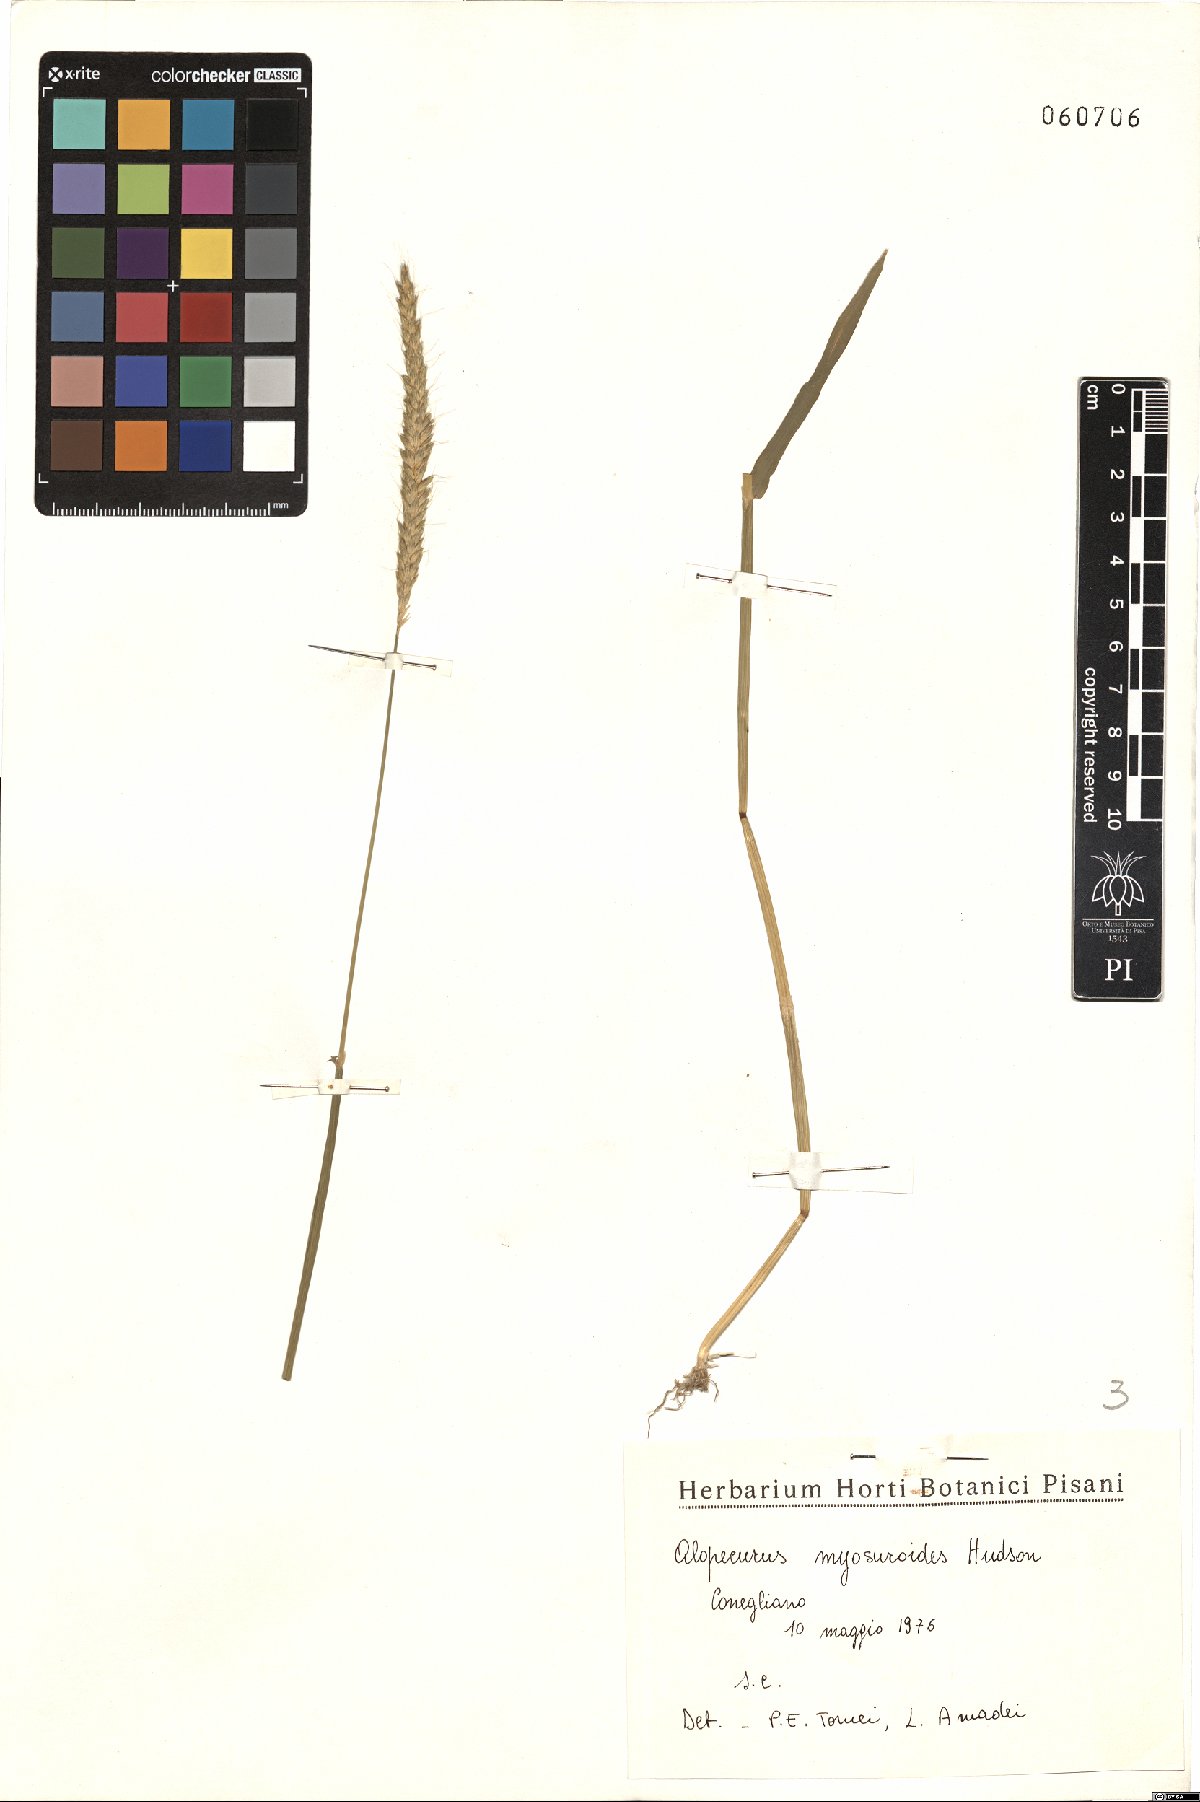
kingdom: Plantae
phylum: Tracheophyta
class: Liliopsida
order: Poales
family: Poaceae
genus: Alopecurus
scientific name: Alopecurus myosuroides
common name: Black-grass
